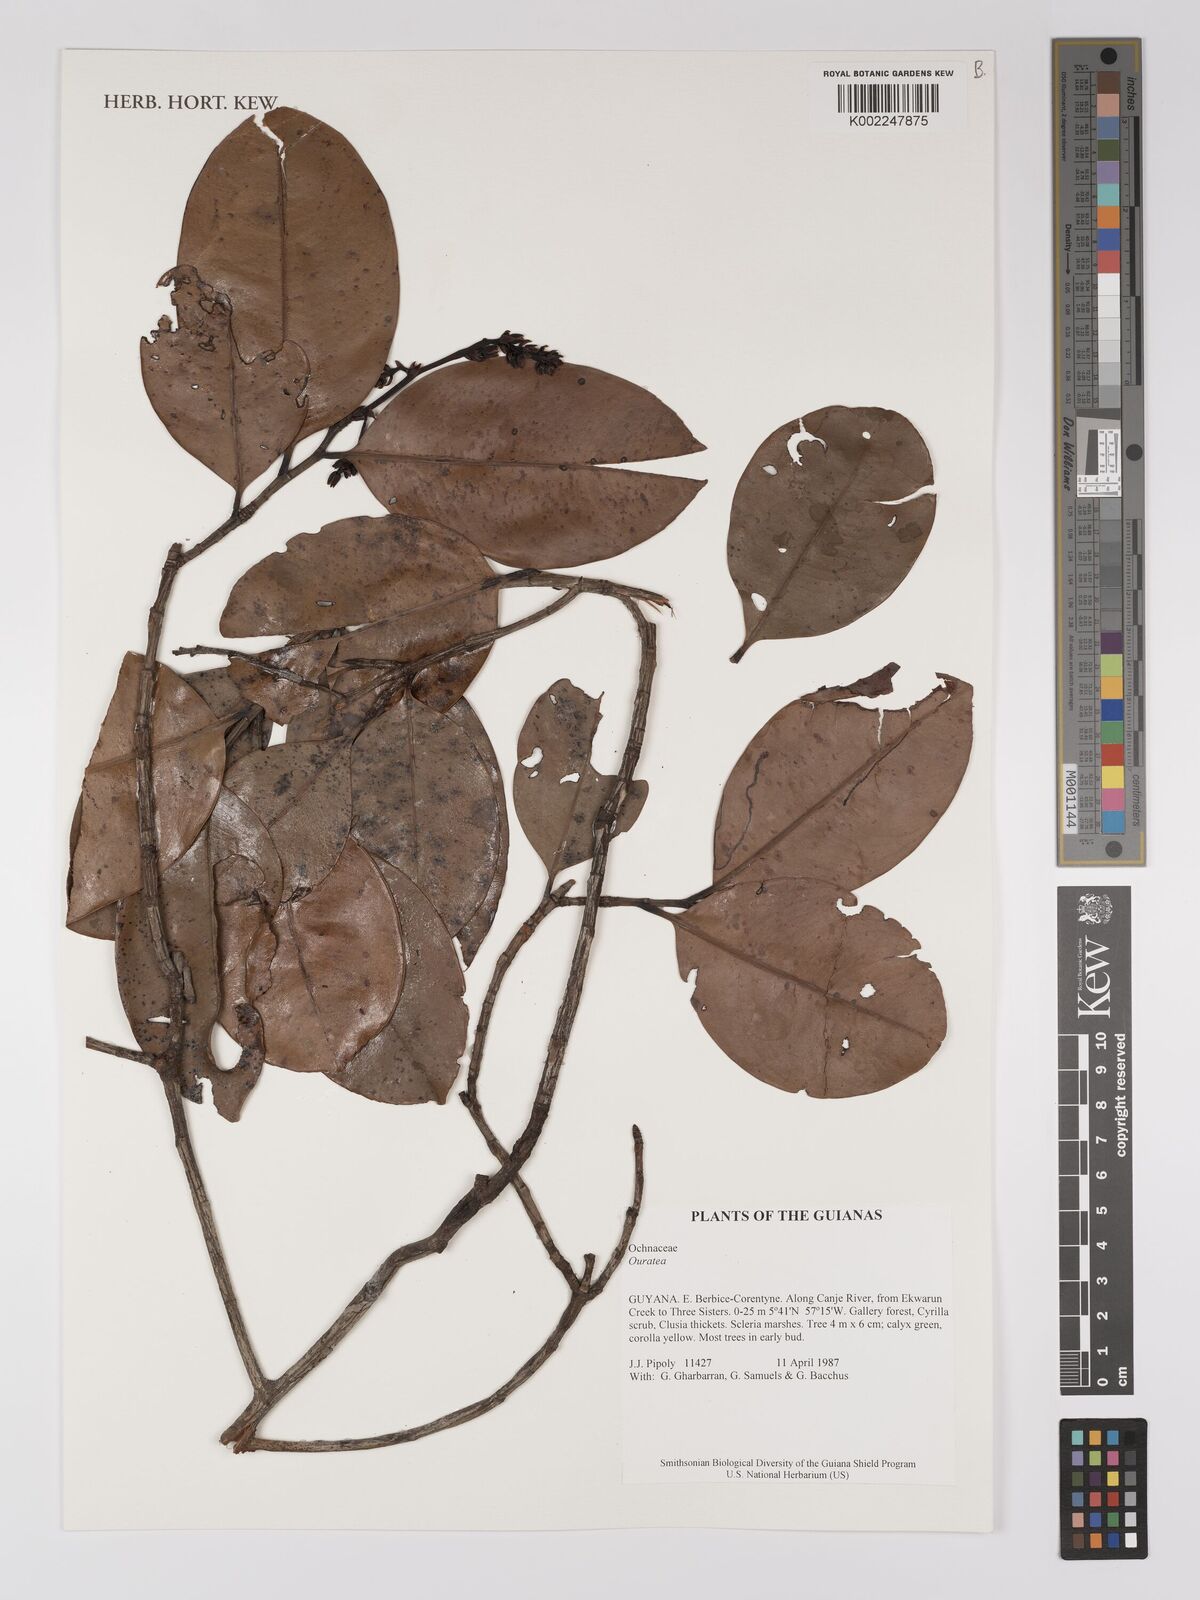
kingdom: Plantae
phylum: Tracheophyta
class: Magnoliopsida
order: Malpighiales
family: Ochnaceae
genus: Ouratea
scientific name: Ouratea
